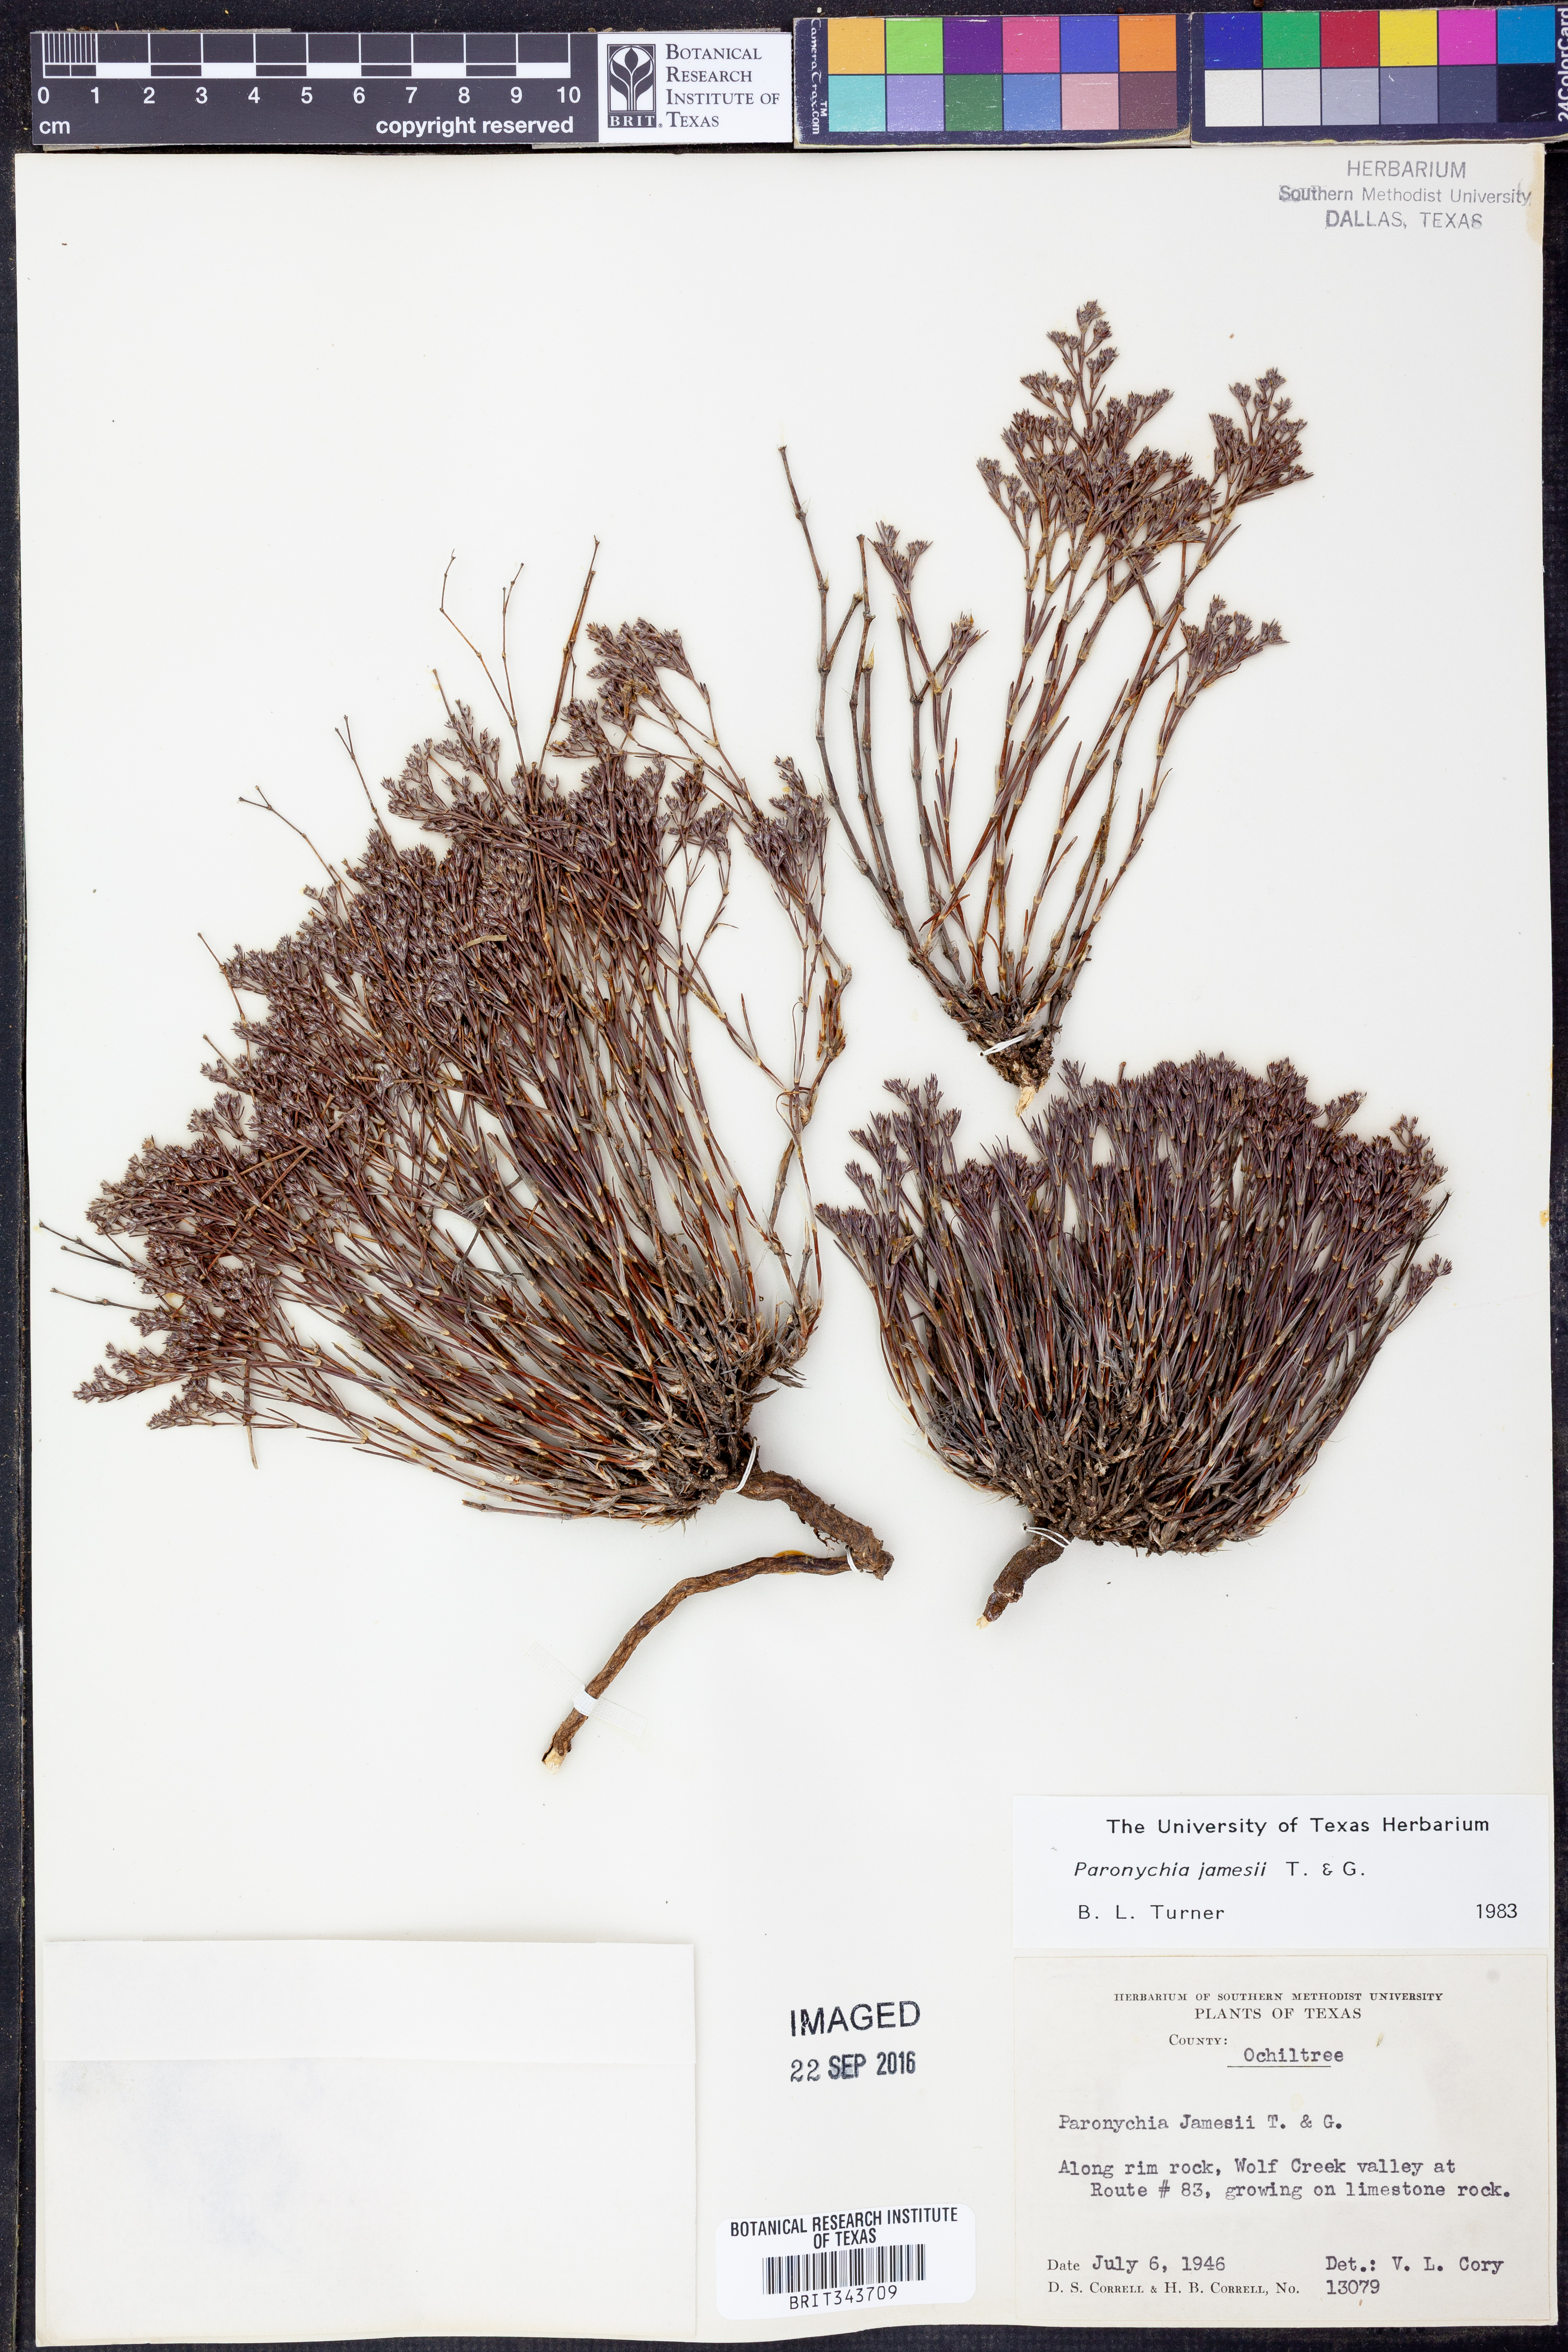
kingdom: Plantae
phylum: Tracheophyta
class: Magnoliopsida
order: Caryophyllales
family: Caryophyllaceae
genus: Paronychia
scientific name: Paronychia jamesii
